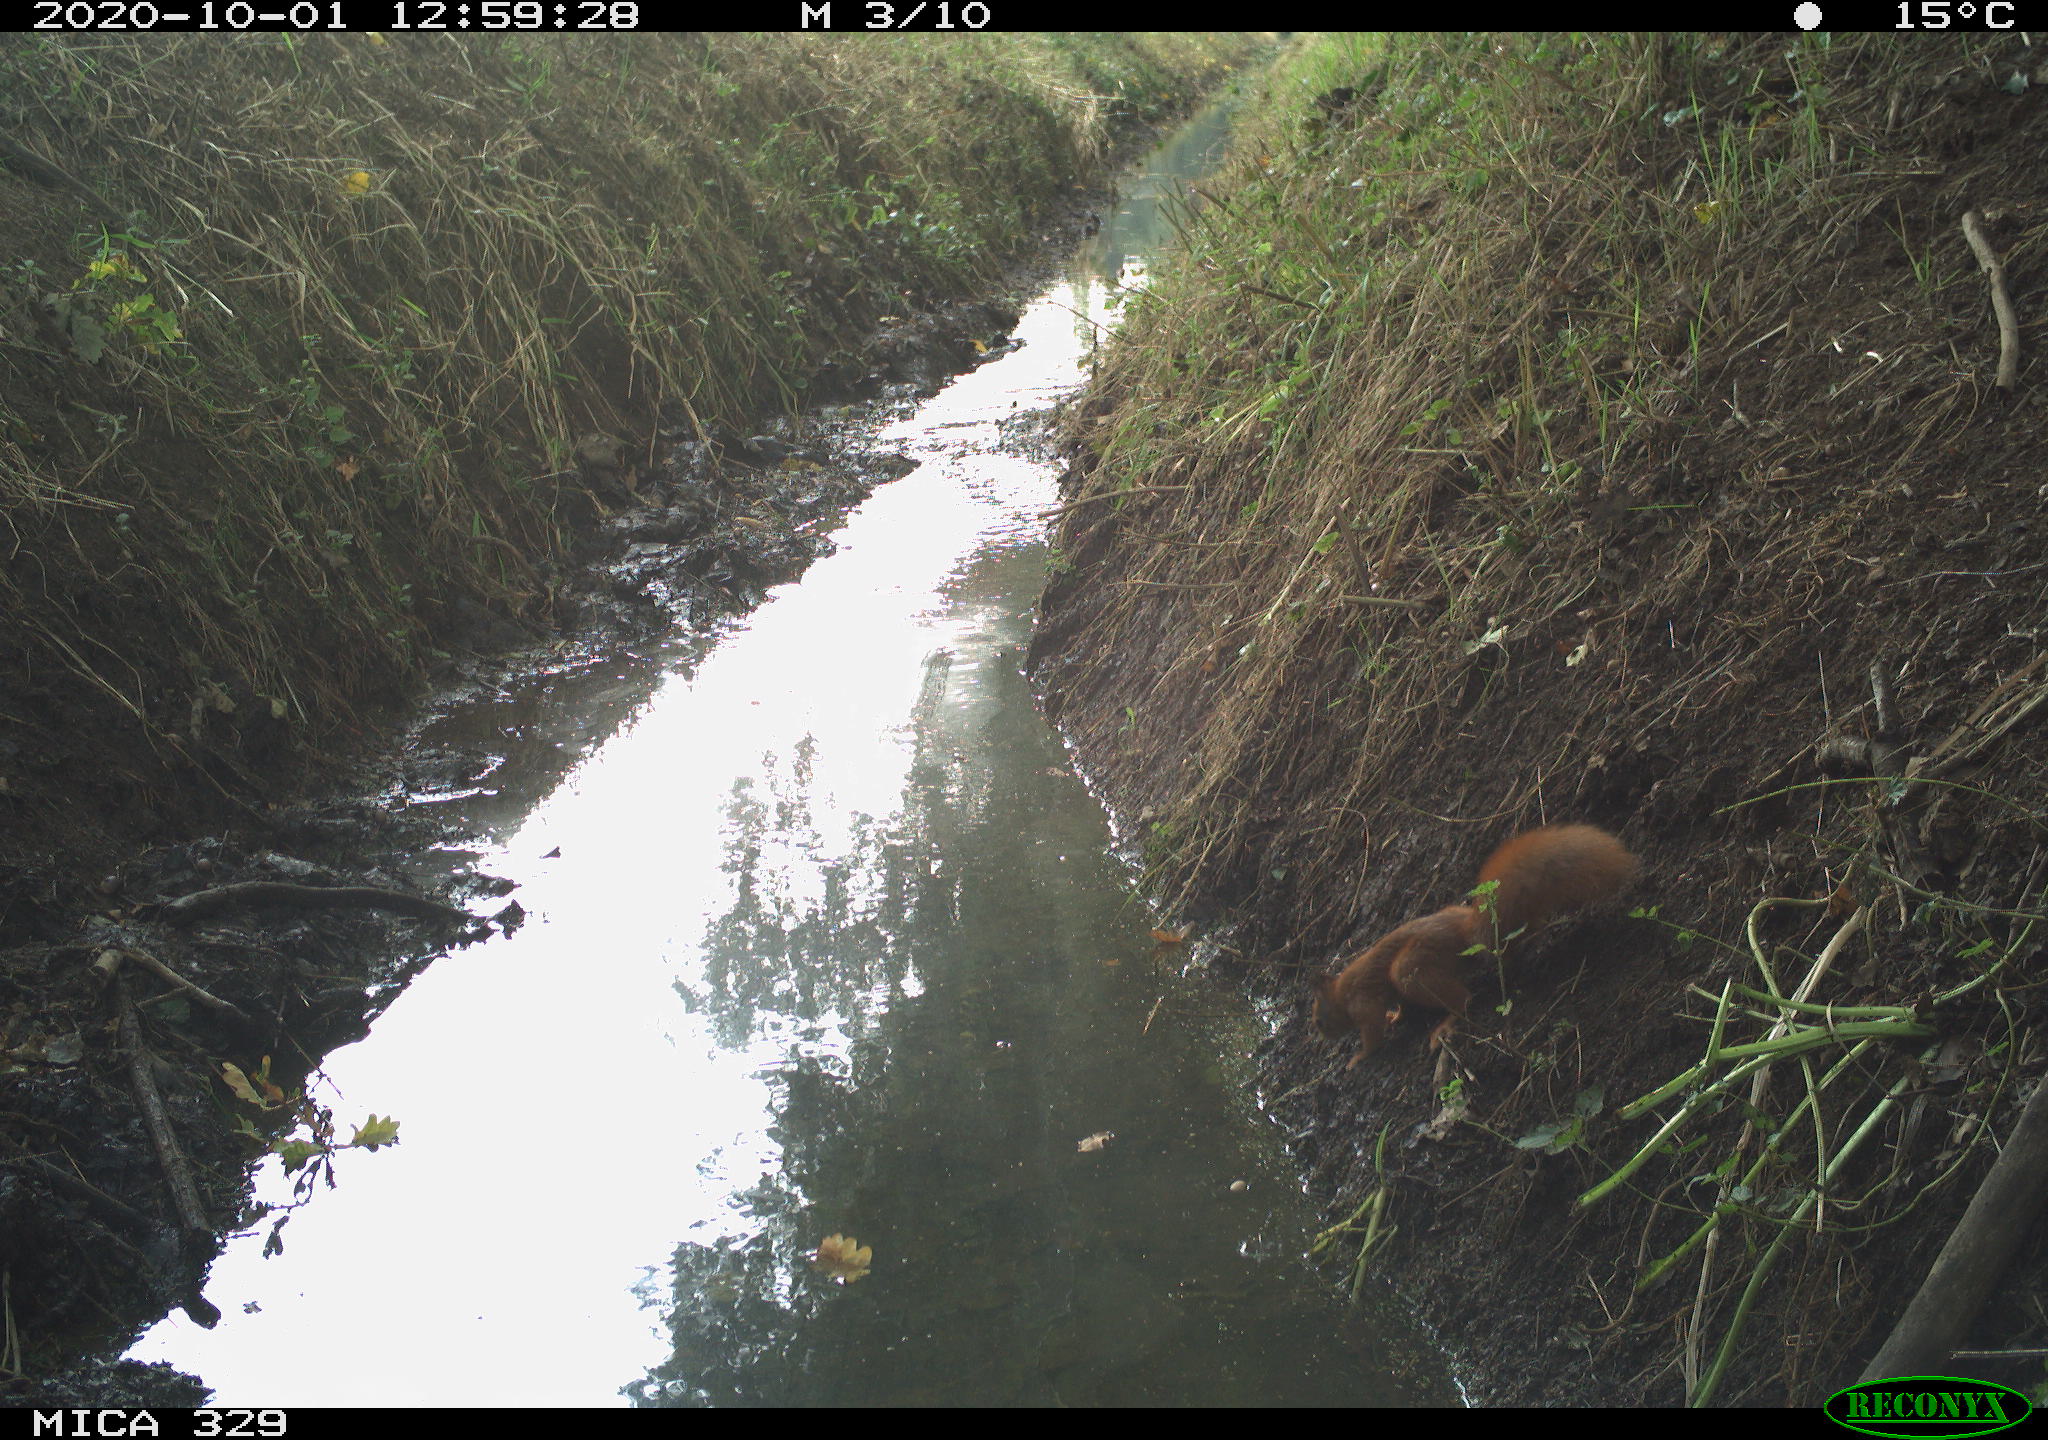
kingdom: Animalia
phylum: Chordata
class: Mammalia
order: Rodentia
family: Sciuridae
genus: Sciurus
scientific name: Sciurus vulgaris
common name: Eurasian red squirrel
